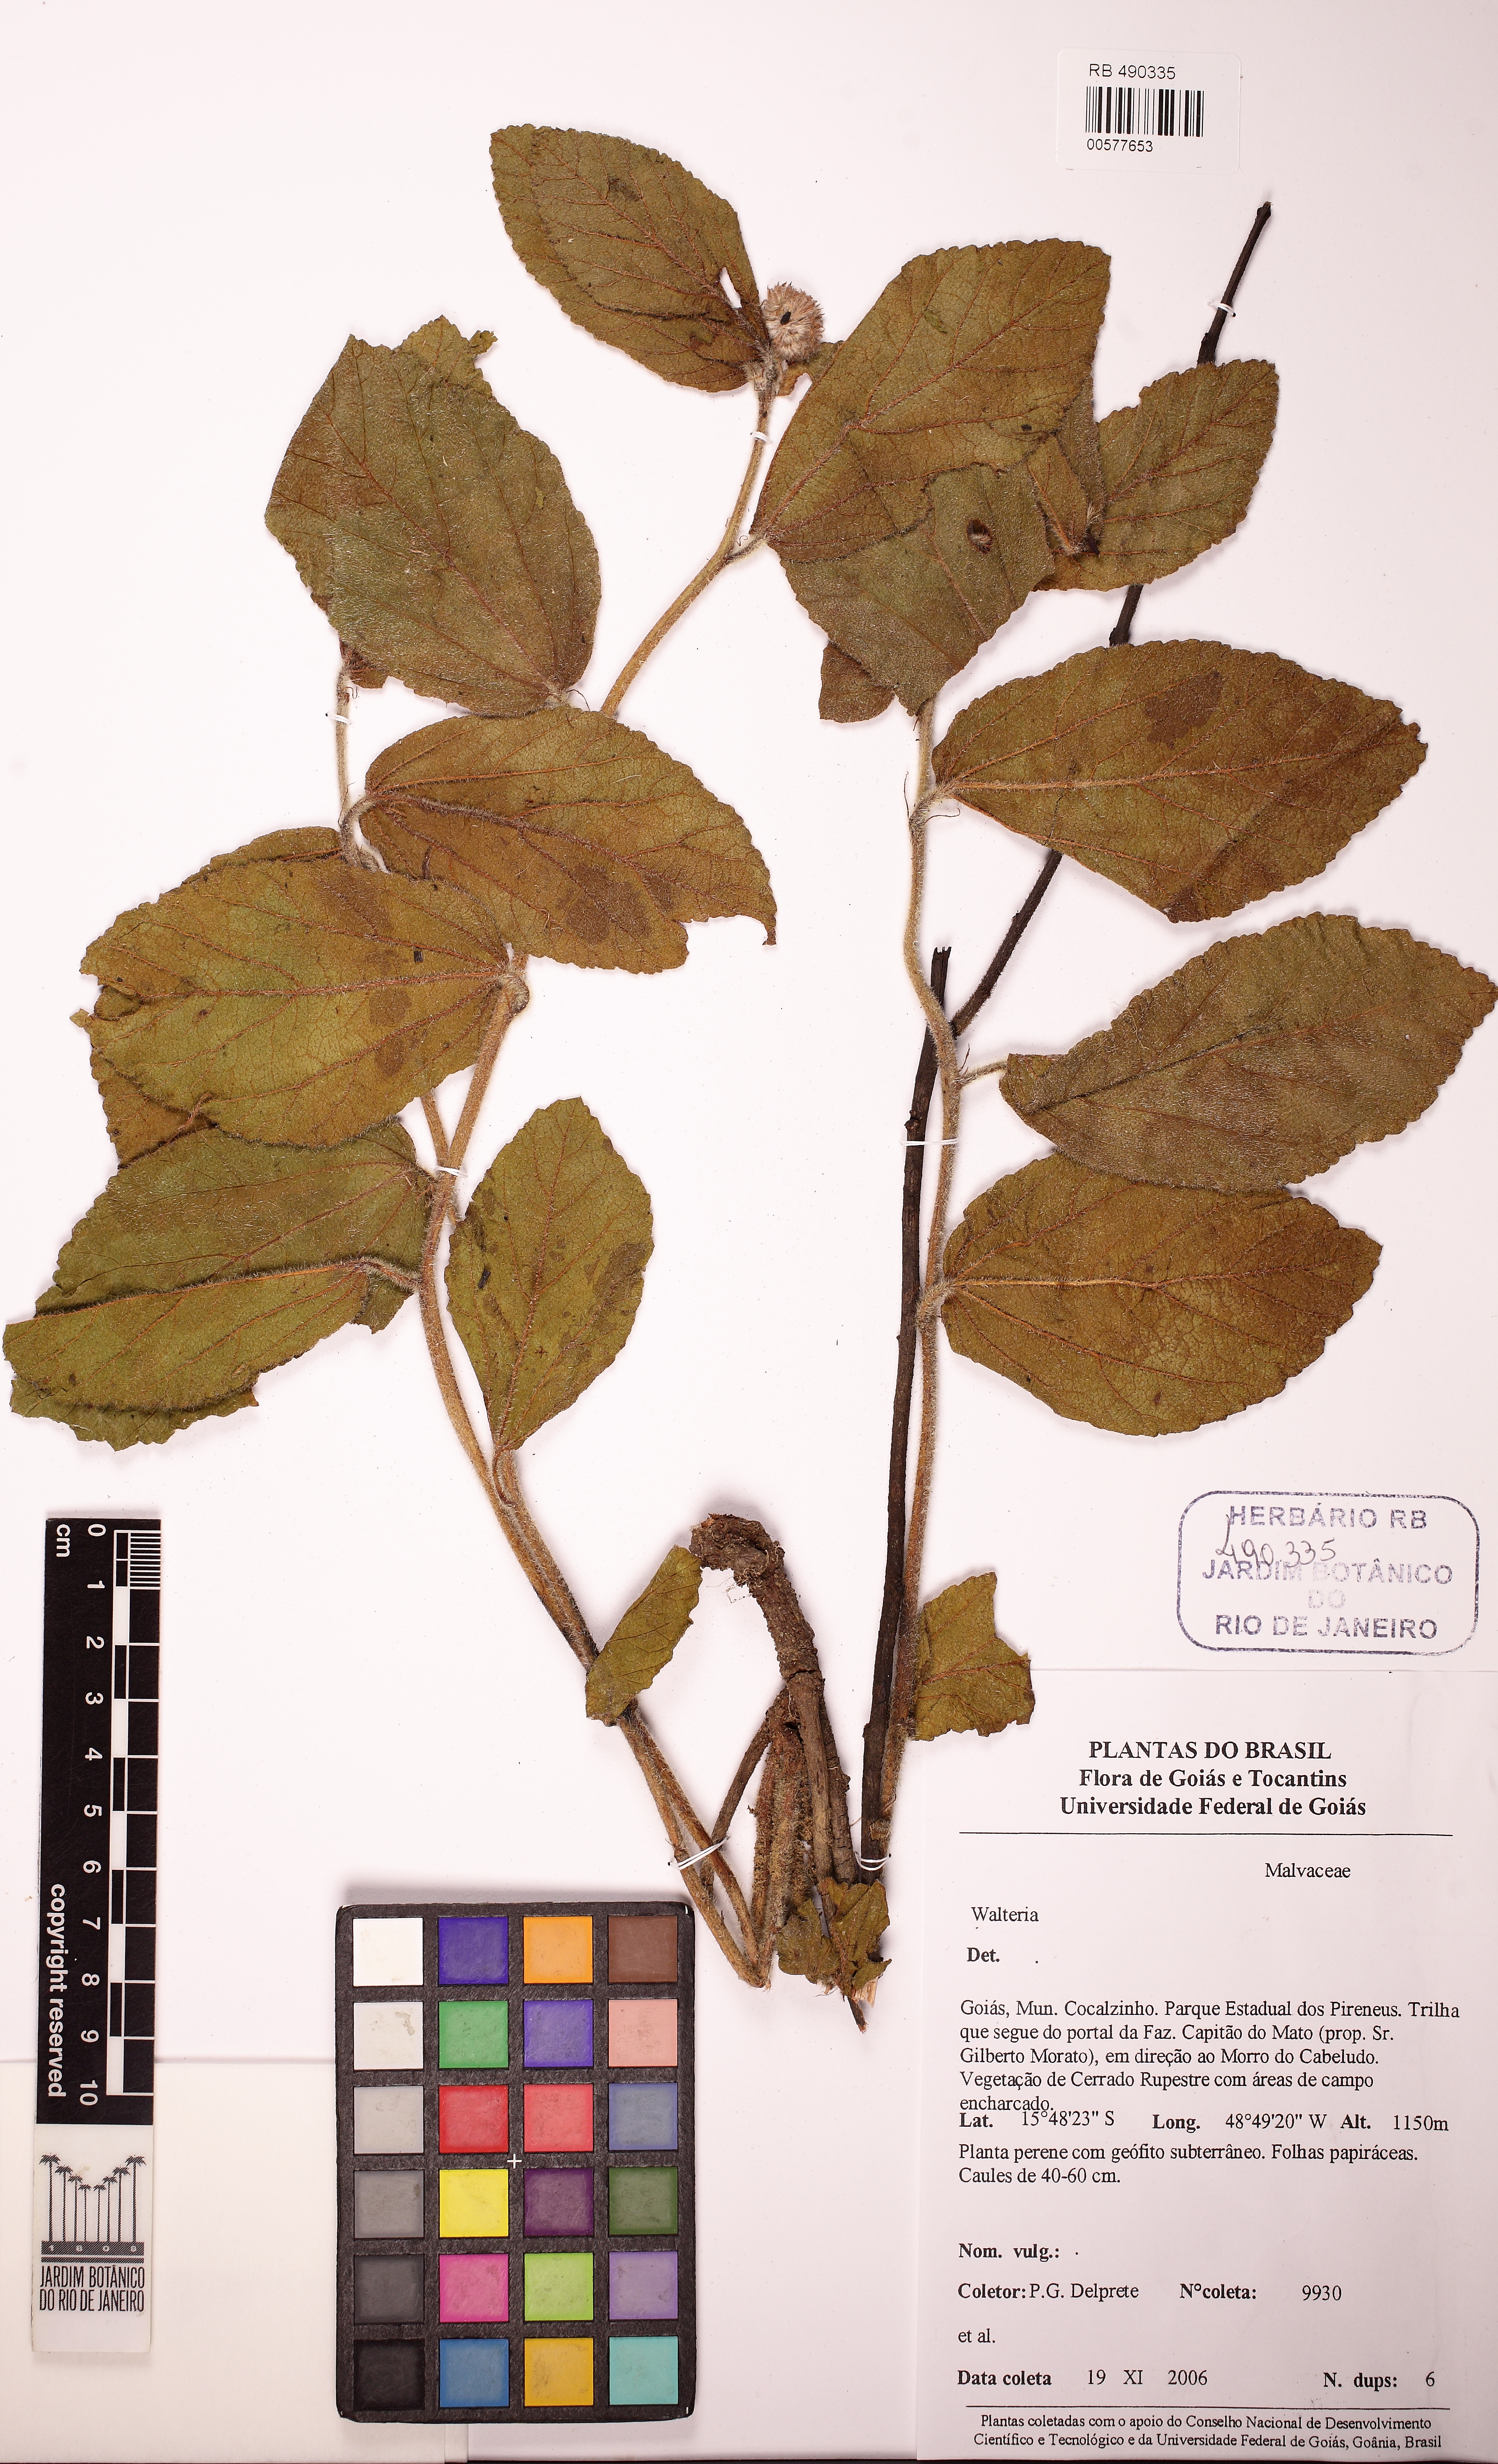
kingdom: Plantae
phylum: Tracheophyta
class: Magnoliopsida
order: Malvales
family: Malvaceae
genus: Waltheria
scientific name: Waltheria communis
